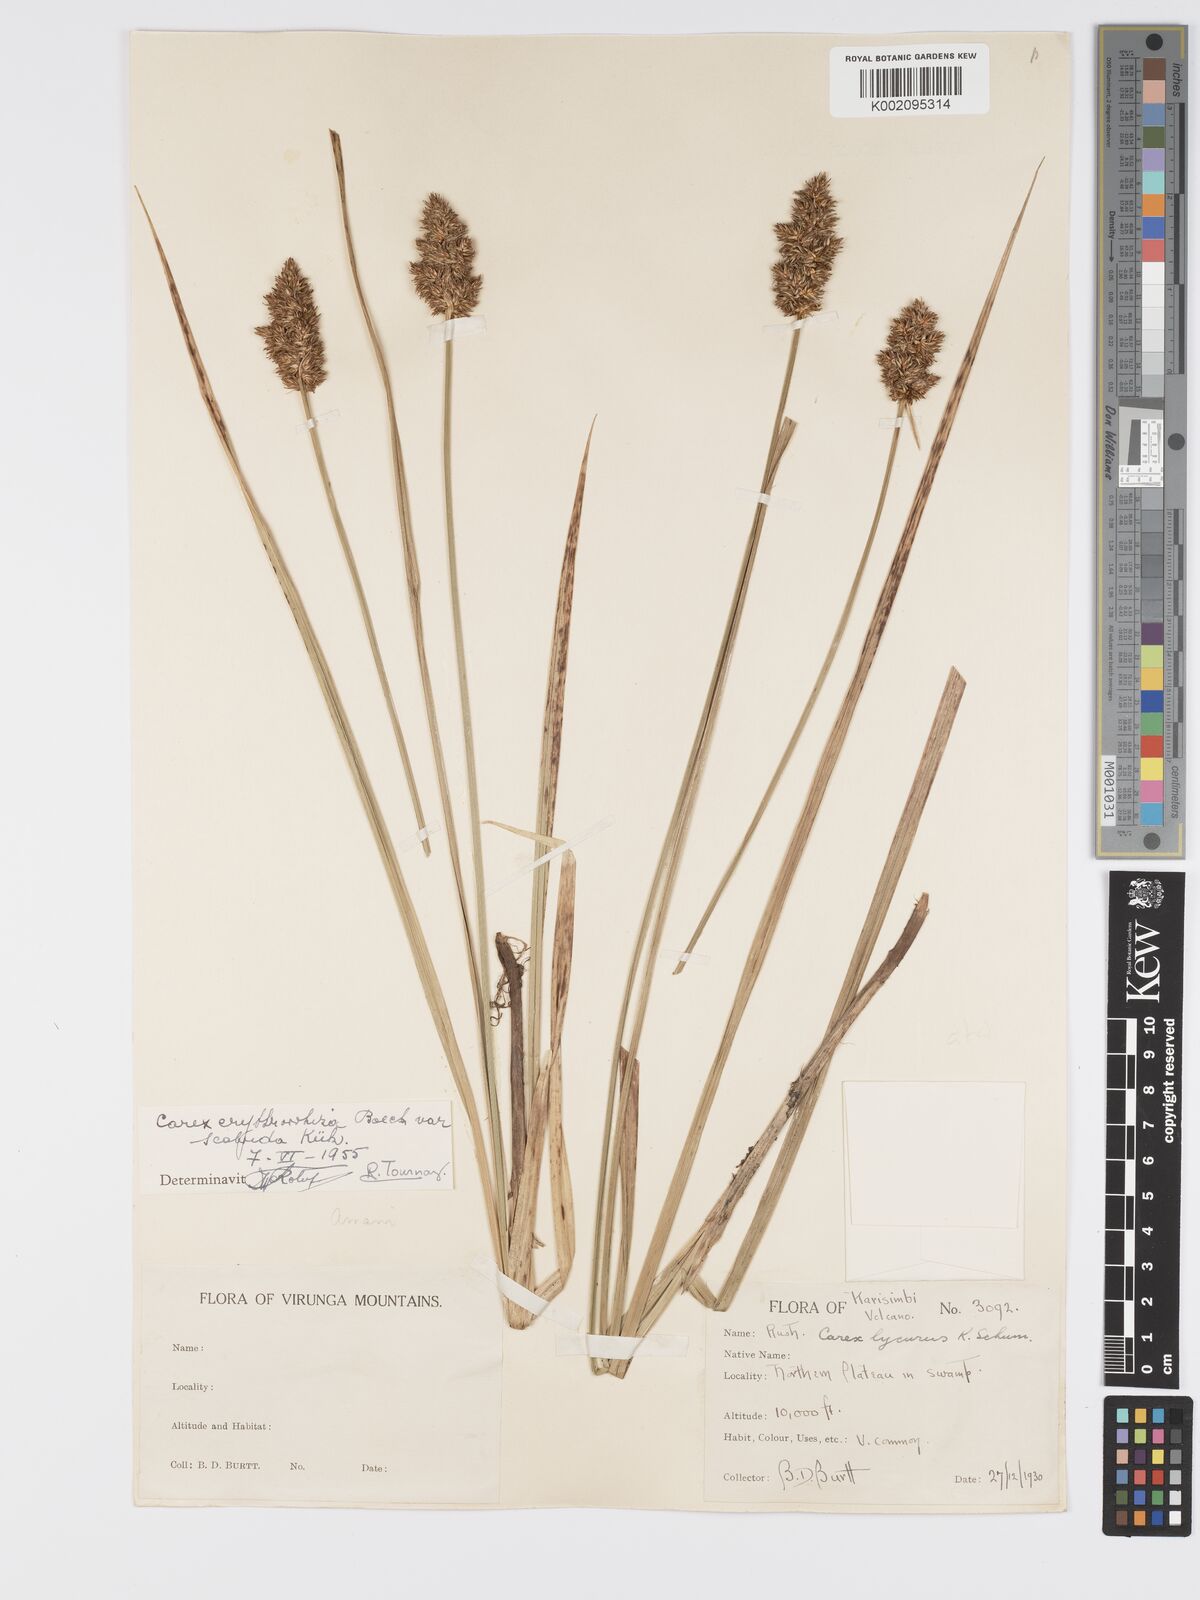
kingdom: Plantae
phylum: Tracheophyta
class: Liliopsida
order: Poales
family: Cyperaceae
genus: Carex
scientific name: Carex lycurus
